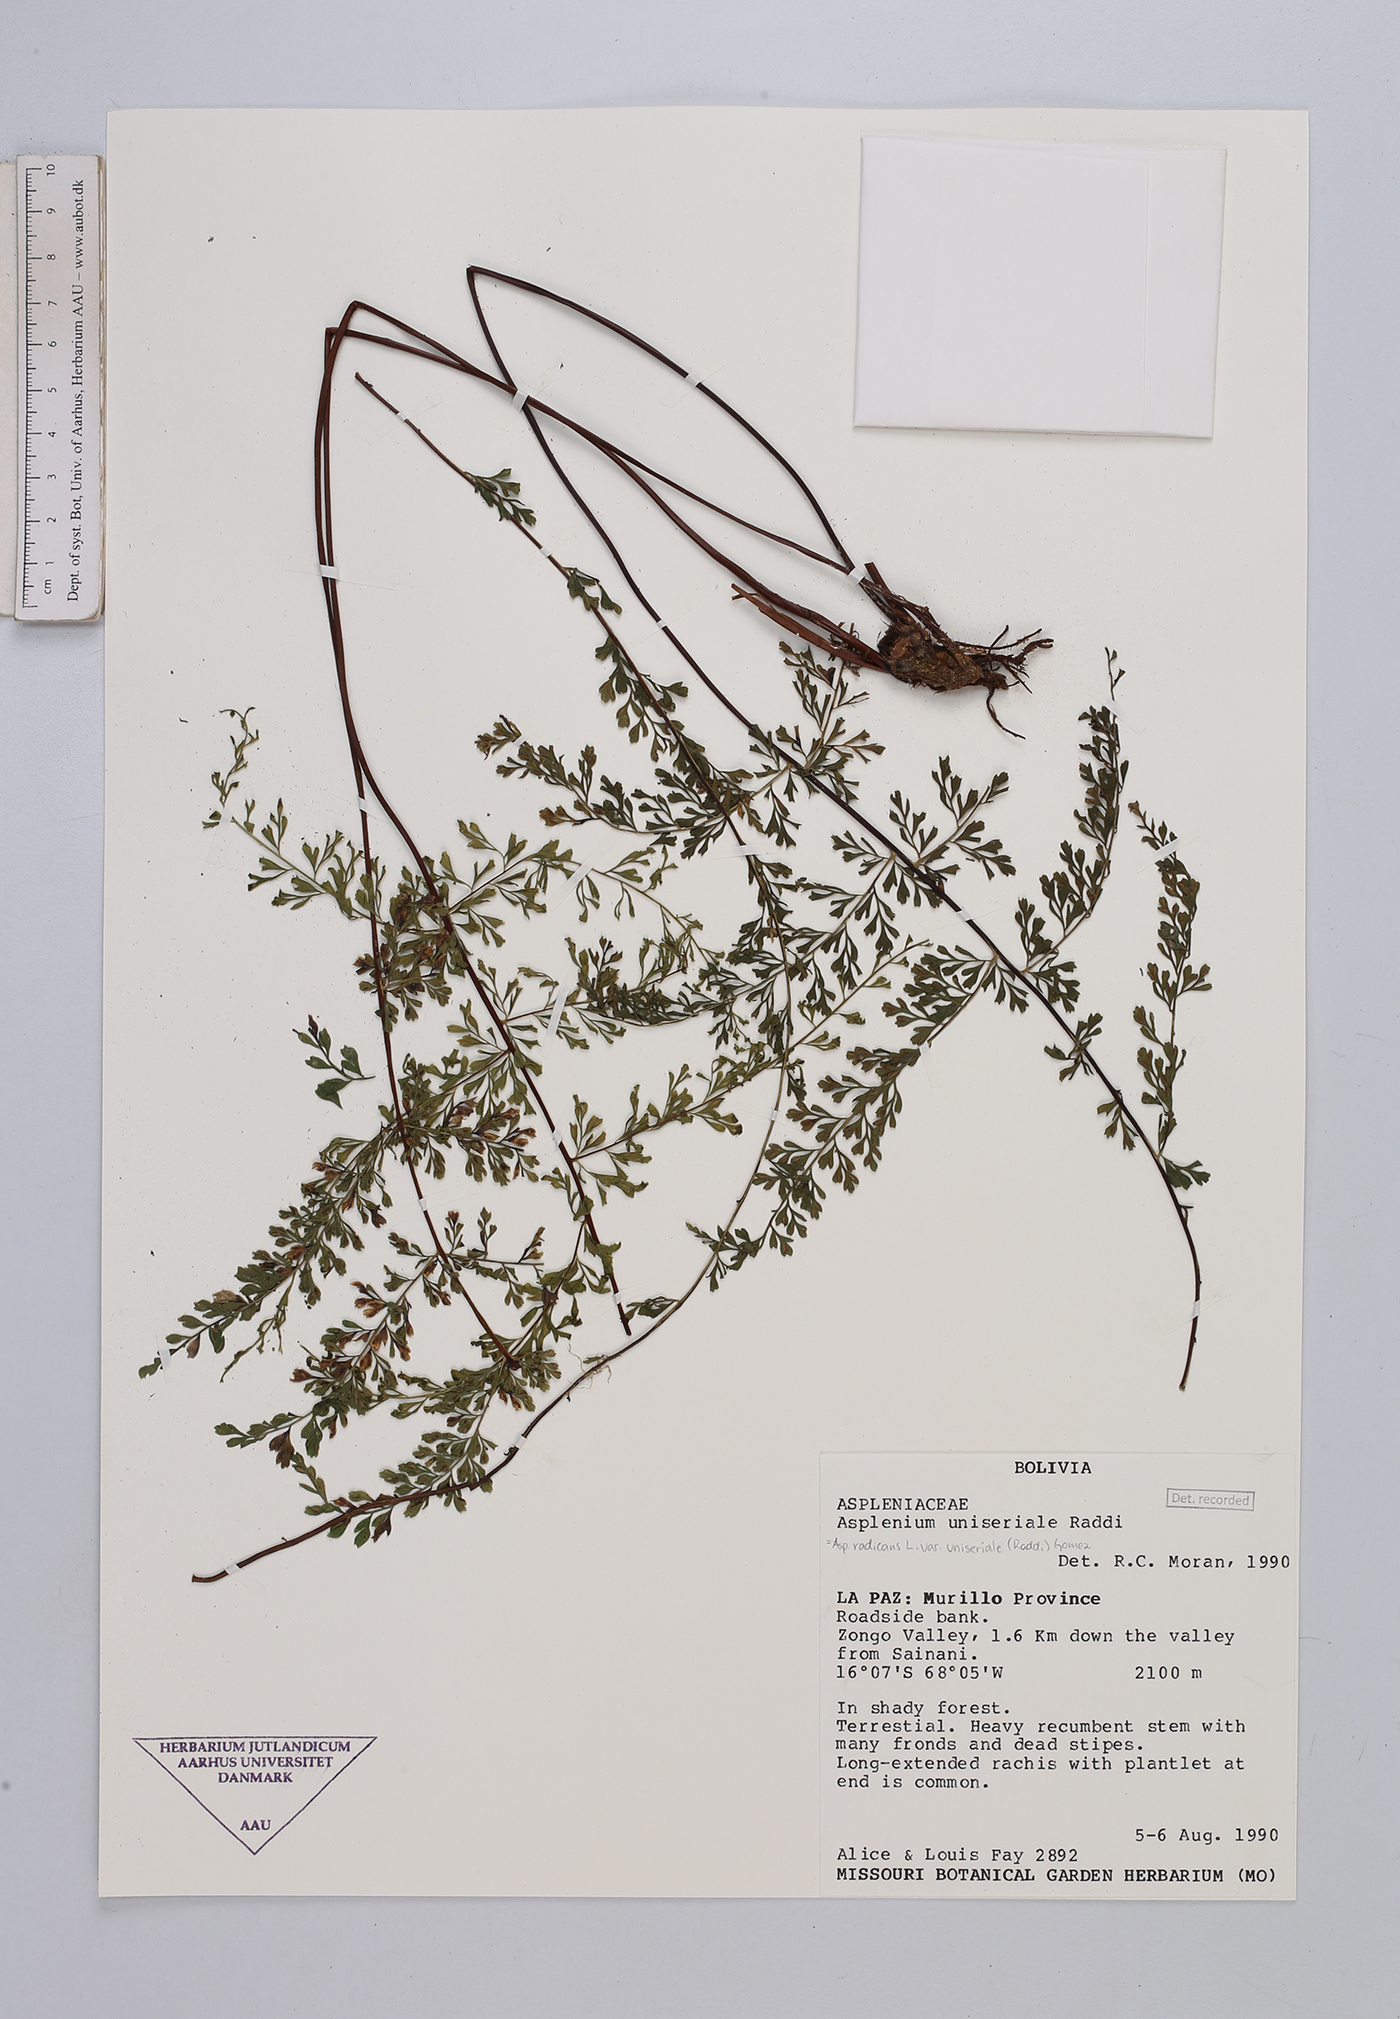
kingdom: Plantae
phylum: Tracheophyta
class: Polypodiopsida
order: Polypodiales
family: Aspleniaceae
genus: Asplenium
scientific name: Asplenium uniseriale
